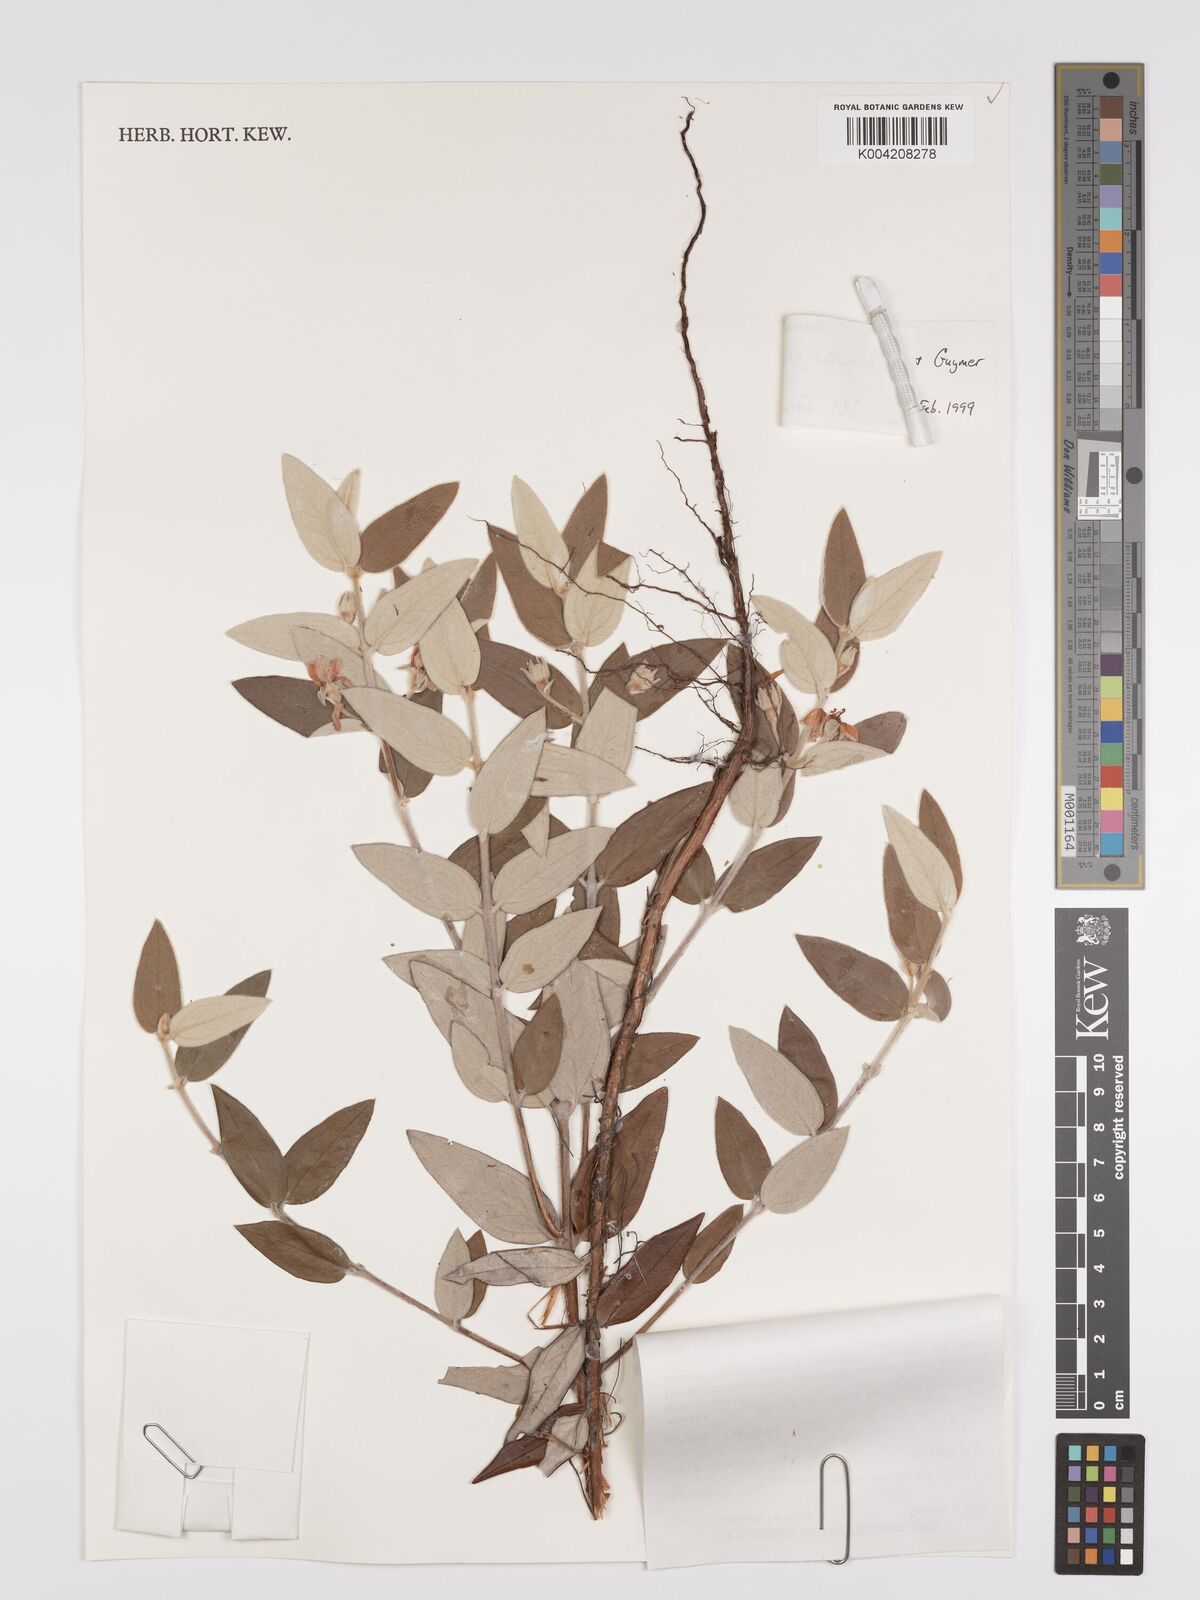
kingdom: Plantae
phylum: Tracheophyta
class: Magnoliopsida
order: Myrtales
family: Myrtaceae
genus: Lithomyrtus
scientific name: Lithomyrtus grandifolia
